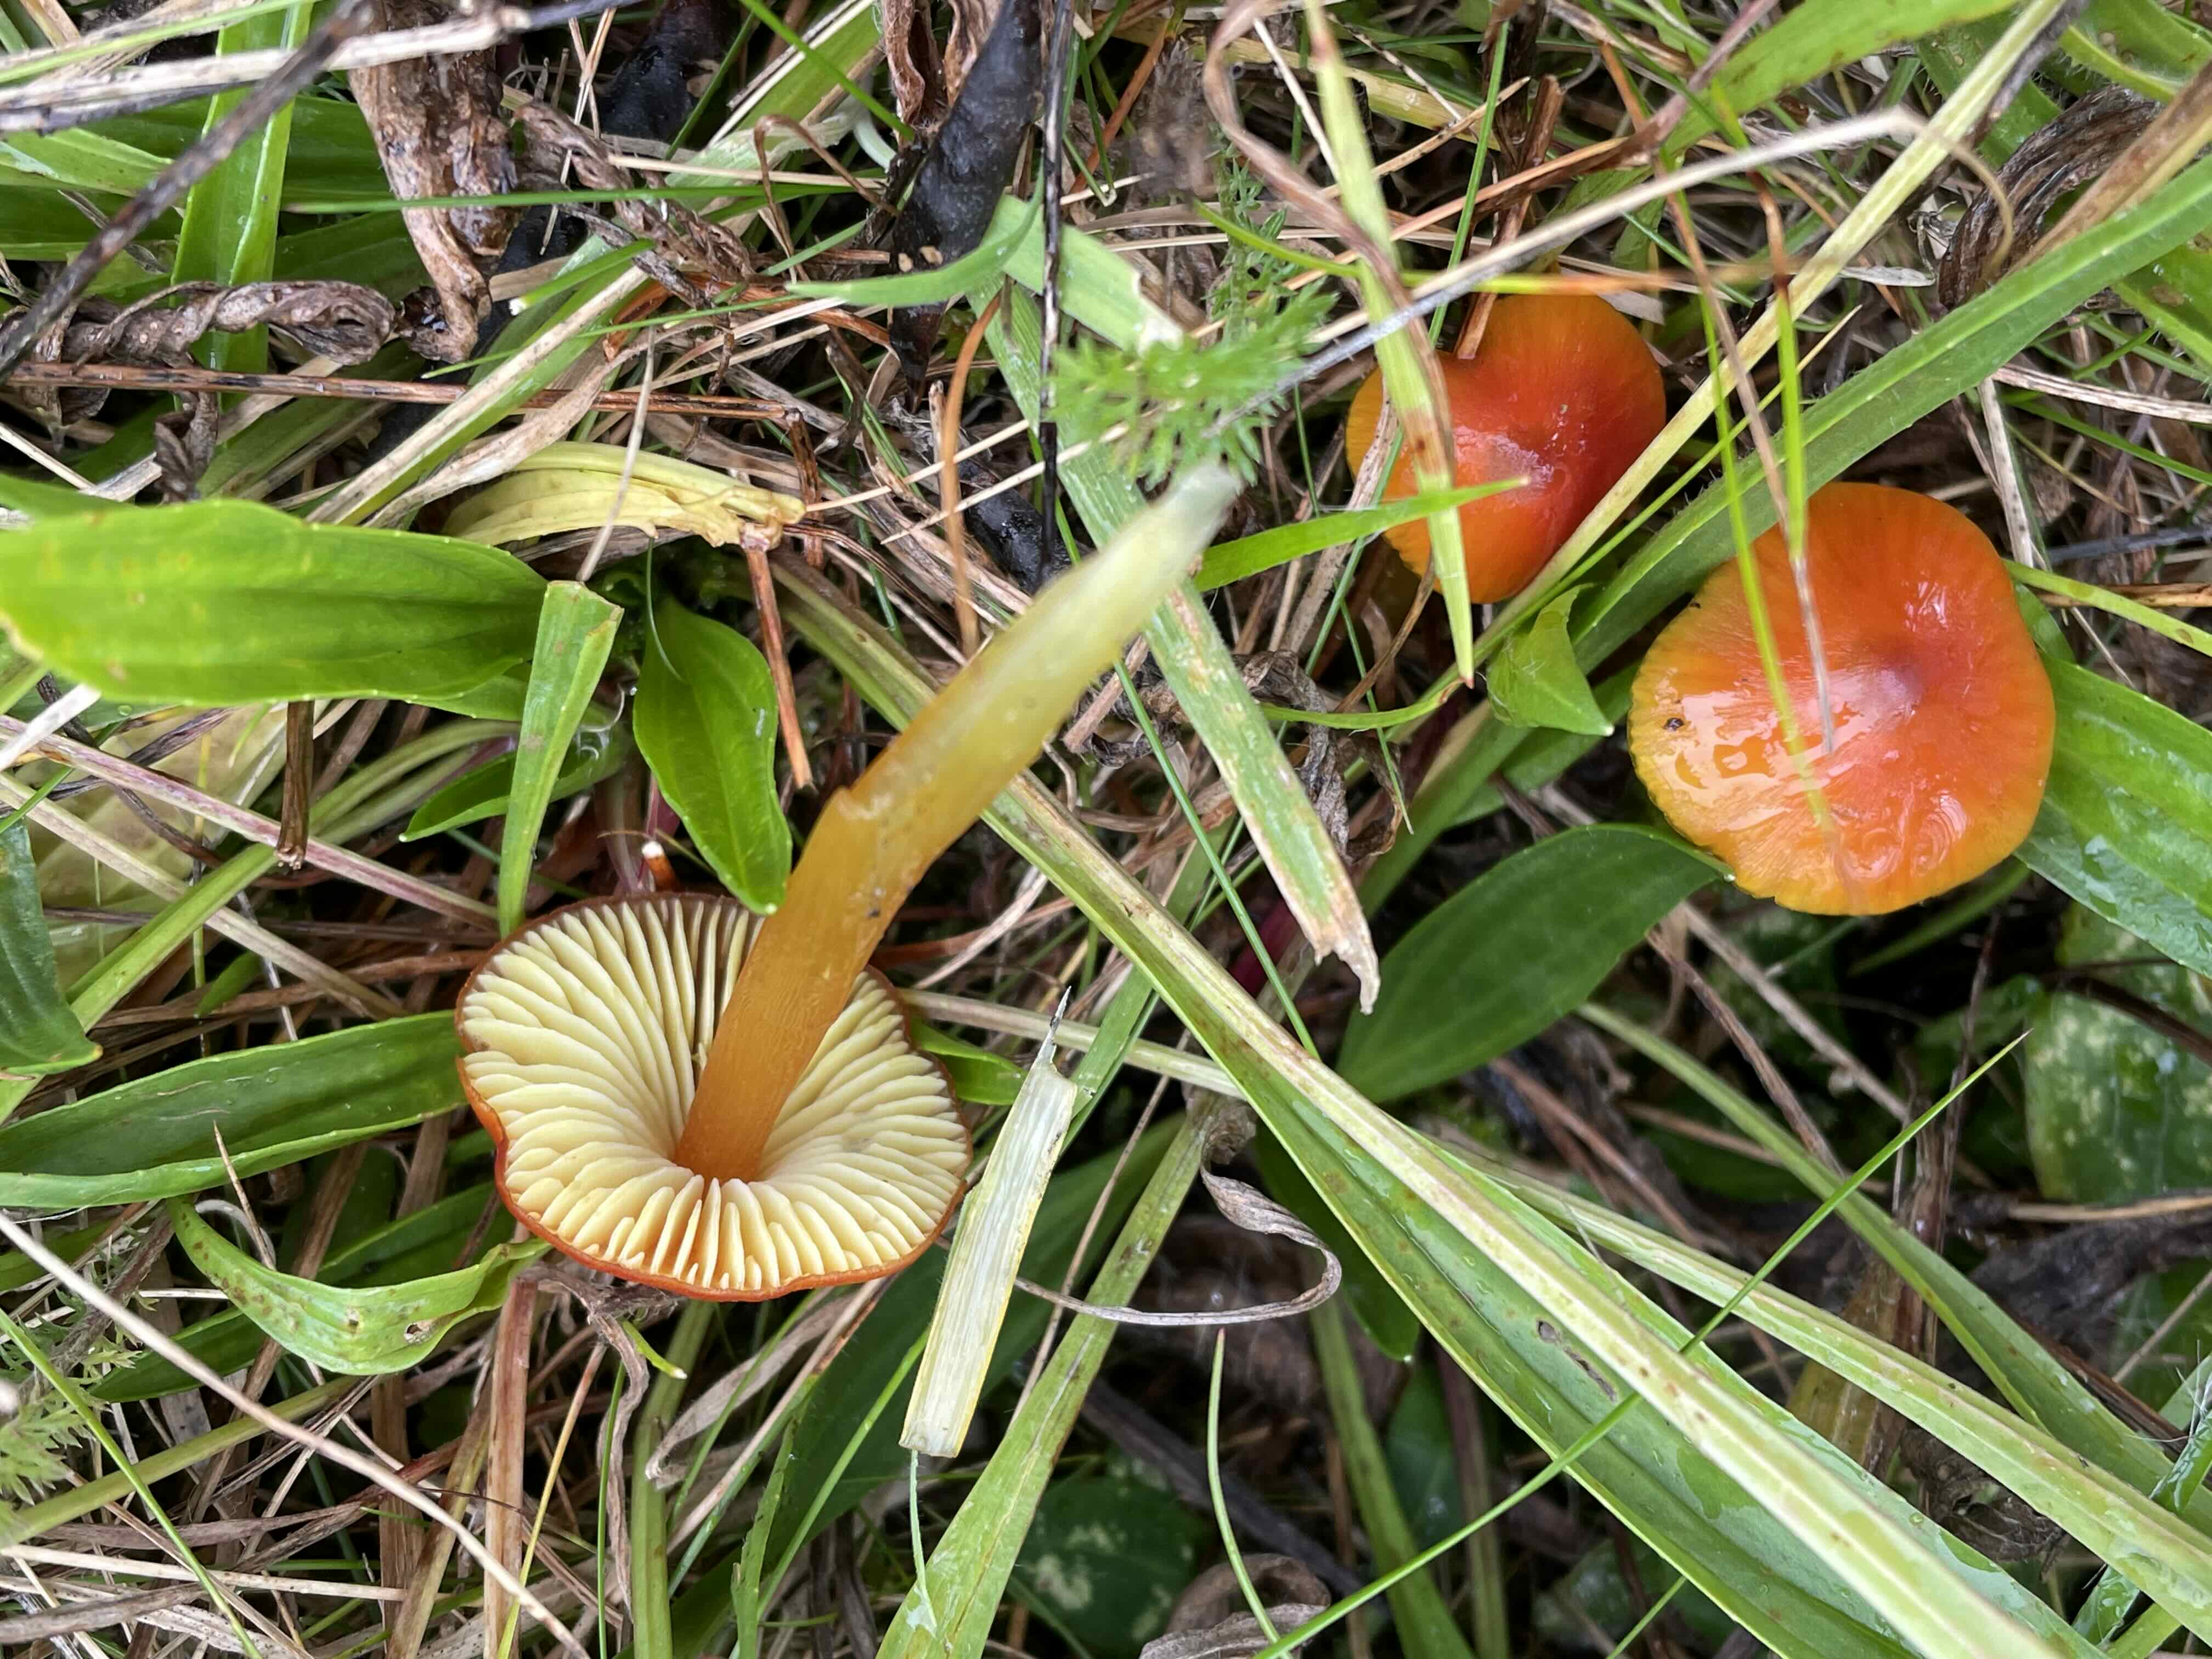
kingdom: Fungi
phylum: Basidiomycota
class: Agaricomycetes
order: Agaricales
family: Hygrophoraceae
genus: Hygrocybe
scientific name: Hygrocybe conica
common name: kegle-vokshat
